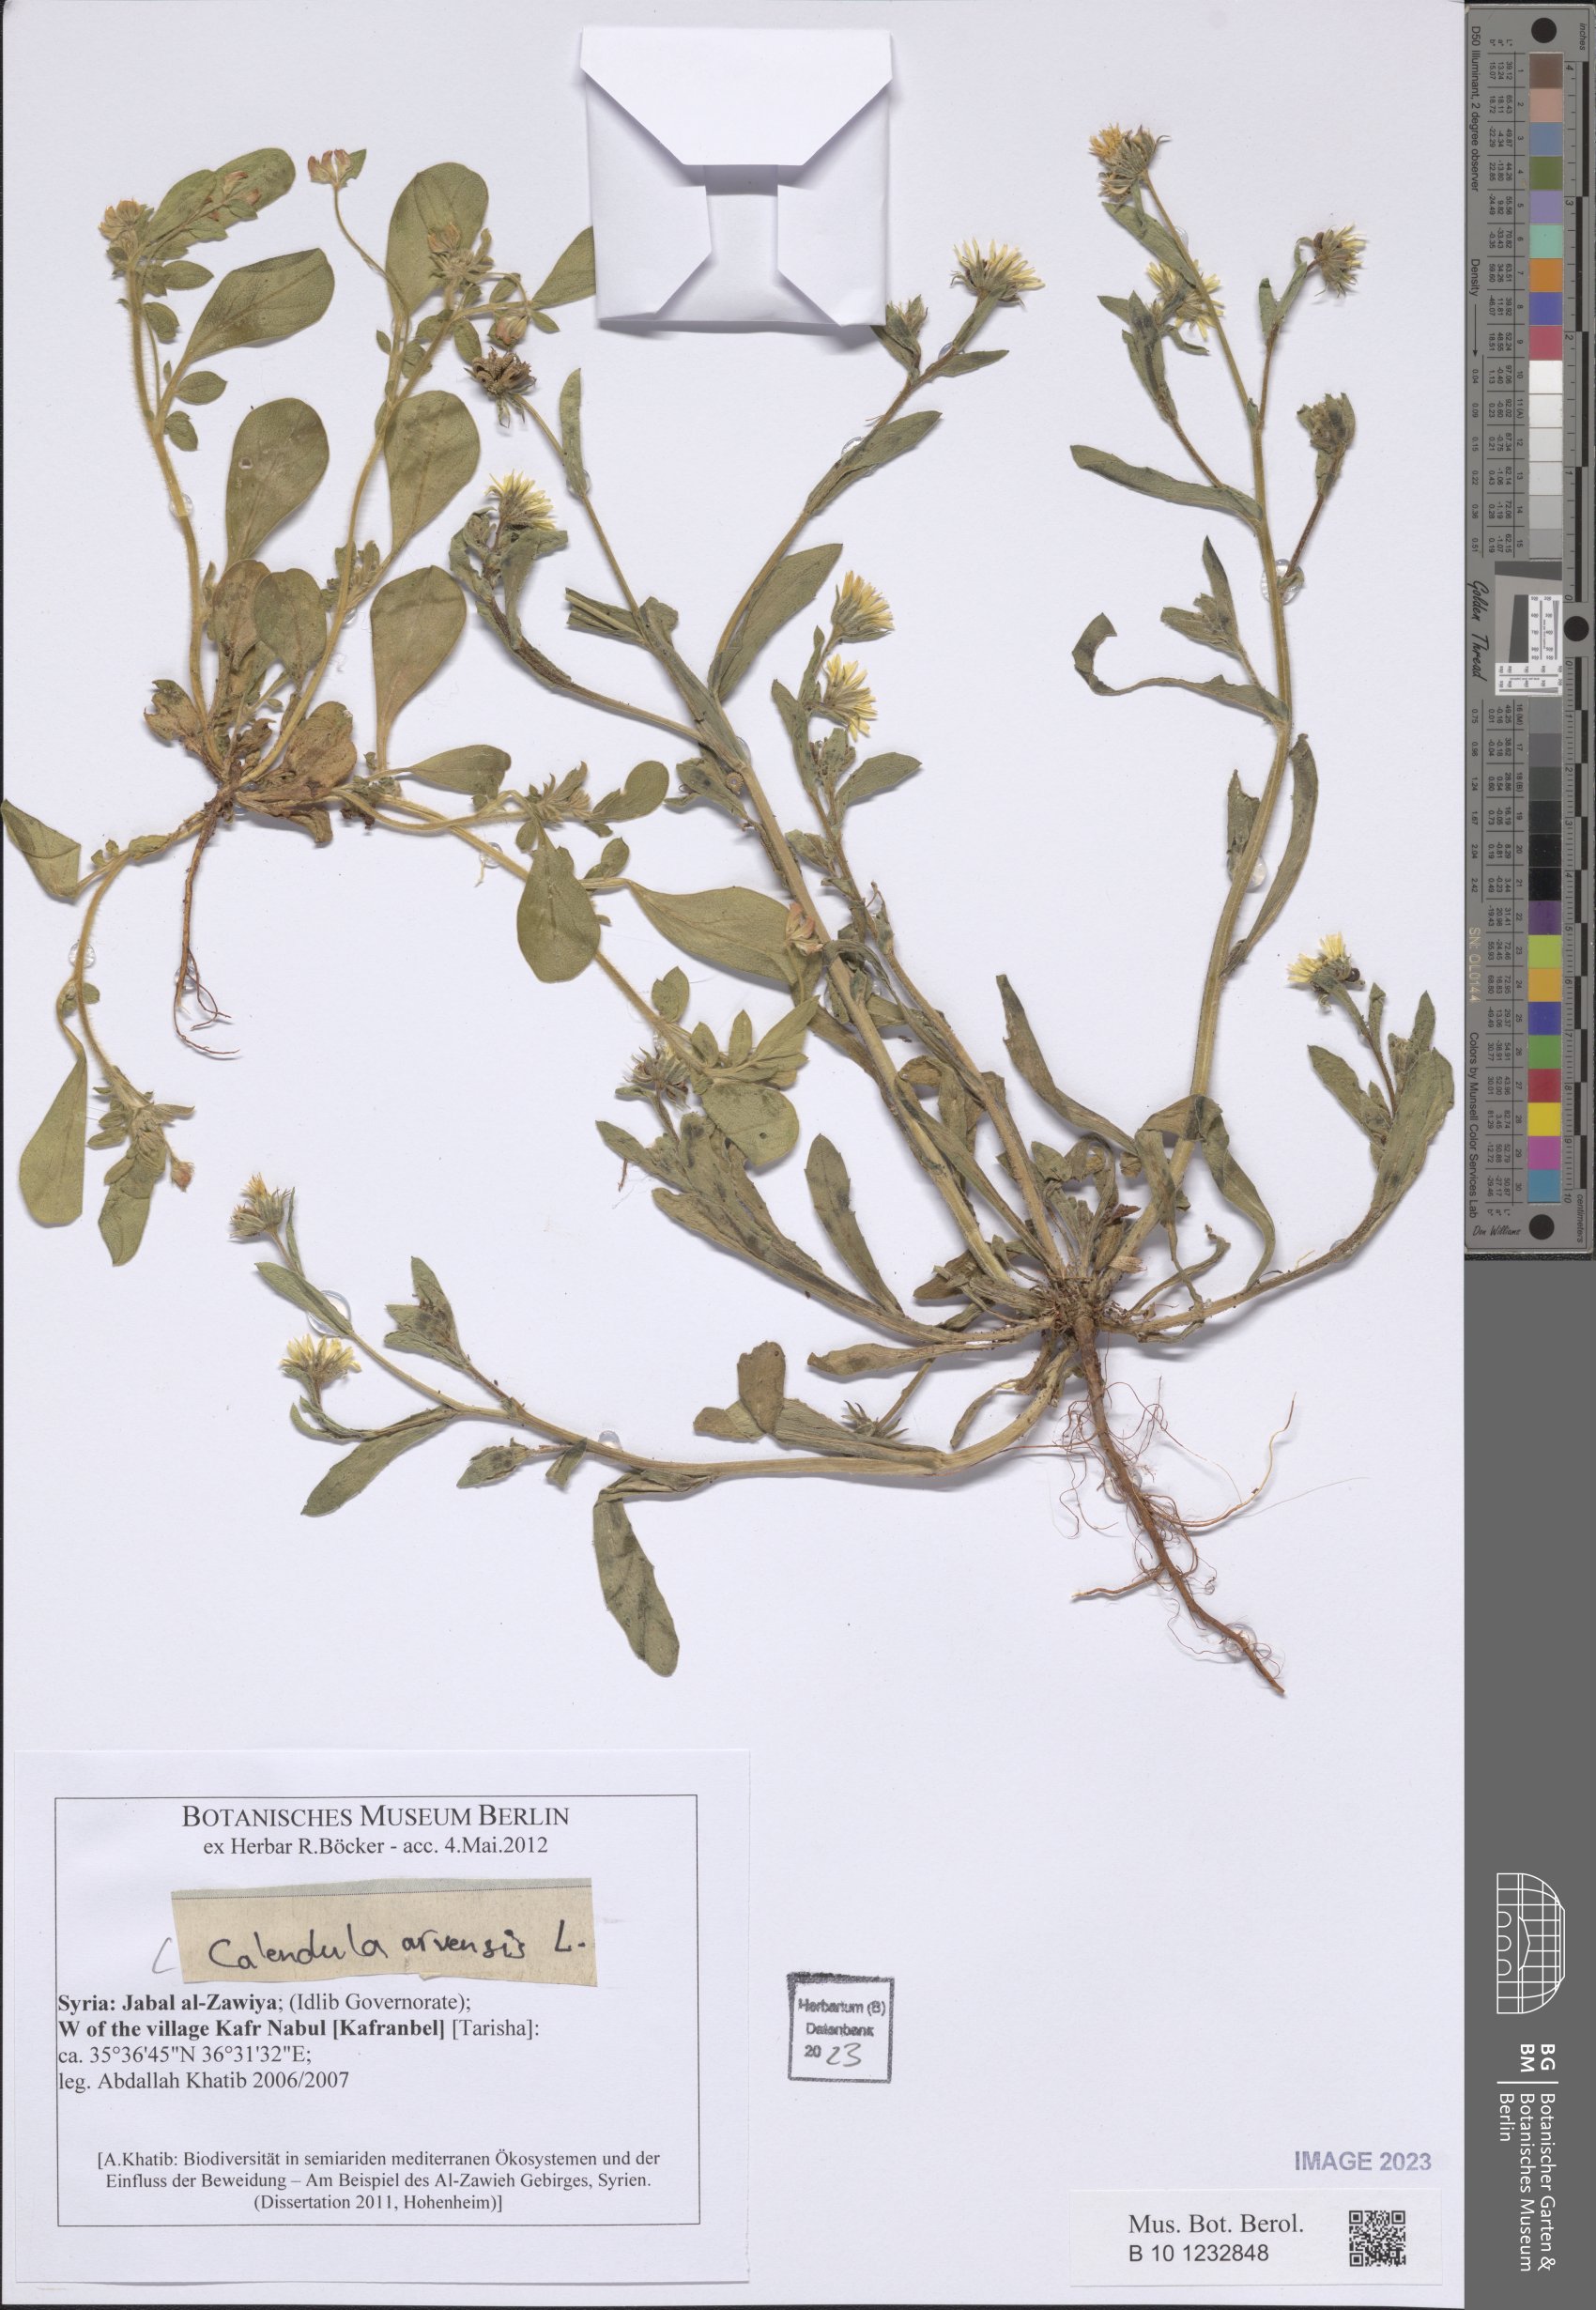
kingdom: Plantae
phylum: Tracheophyta
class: Magnoliopsida
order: Asterales
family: Asteraceae
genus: Calendula
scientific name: Calendula arvensis
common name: Field marigold
